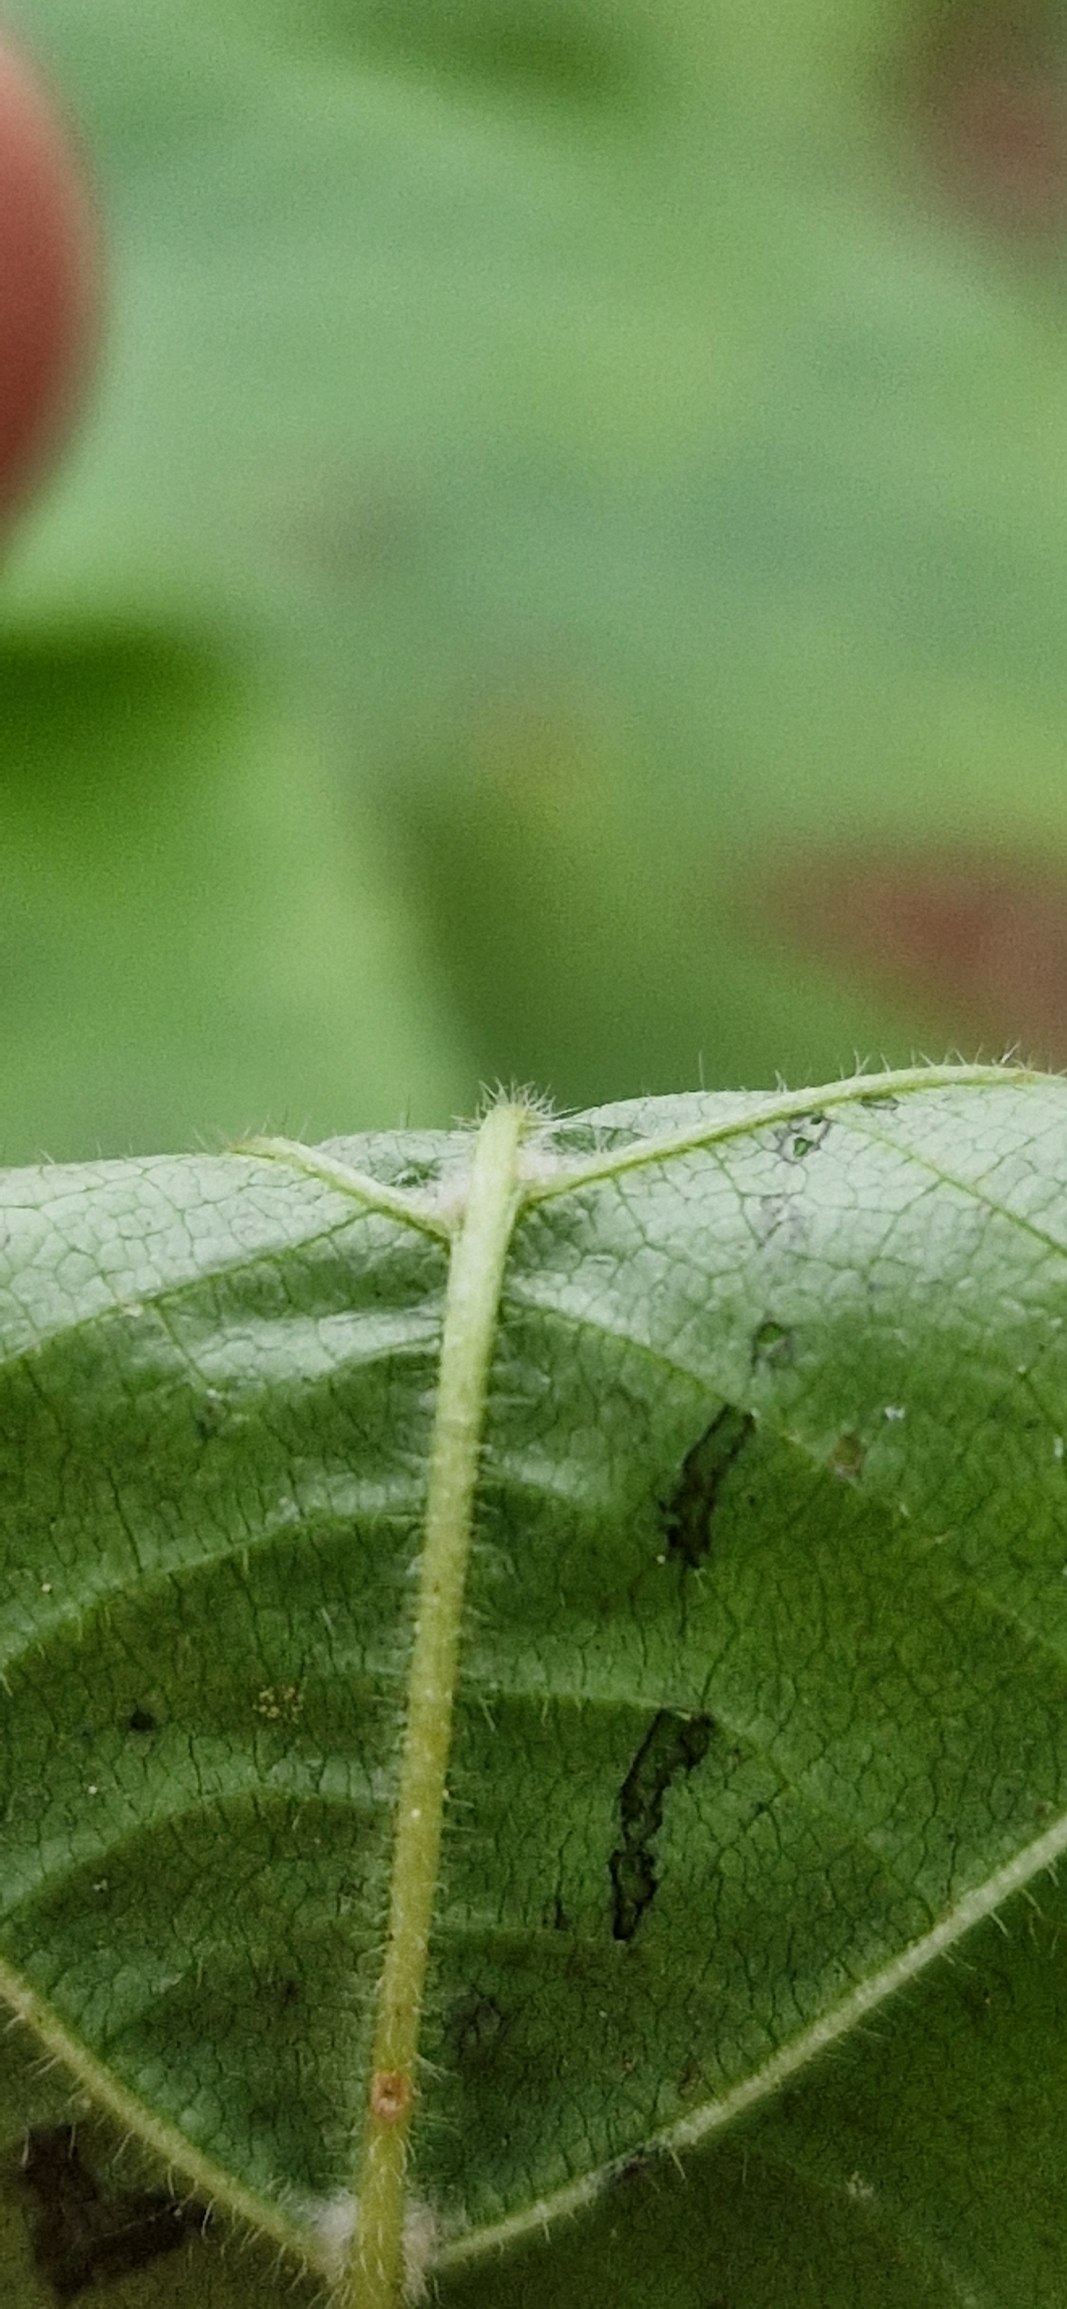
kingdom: Plantae
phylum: Tracheophyta
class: Magnoliopsida
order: Malvales
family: Malvaceae
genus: Tilia
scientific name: Tilia platyphyllos
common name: Storbladet lind
